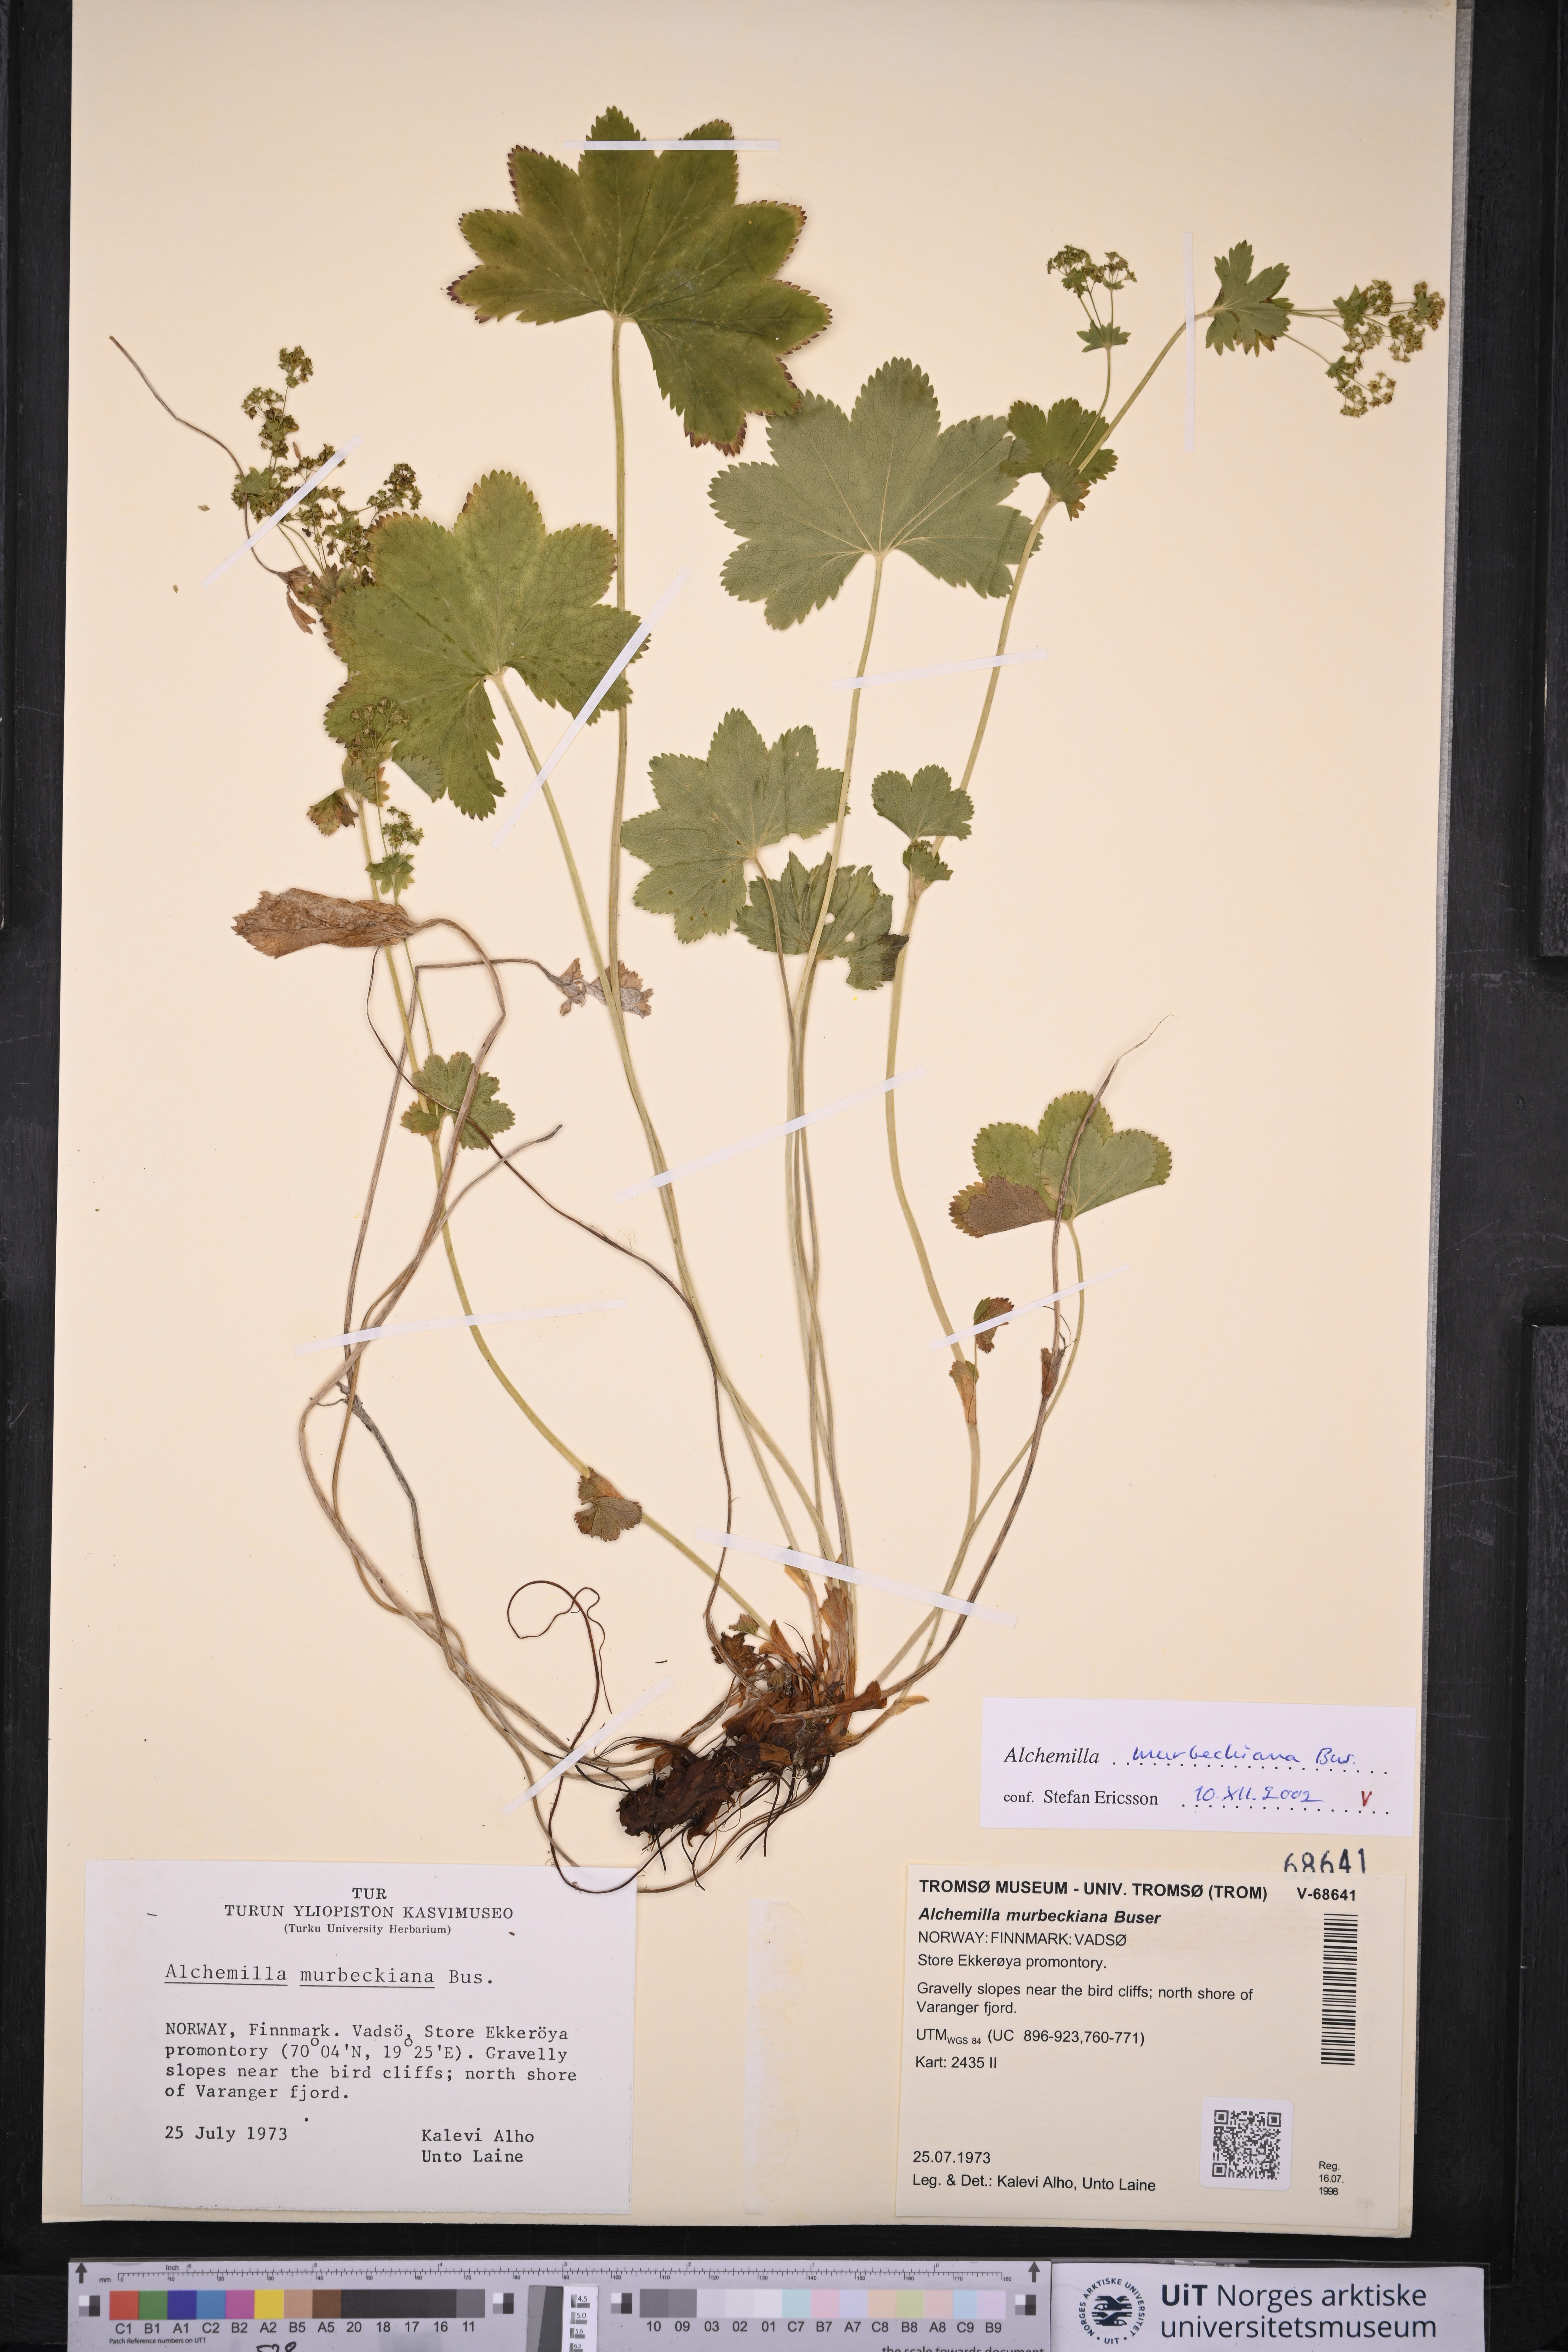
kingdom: Plantae
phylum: Tracheophyta
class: Magnoliopsida
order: Rosales
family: Rosaceae
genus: Alchemilla
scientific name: Alchemilla murbeckiana
